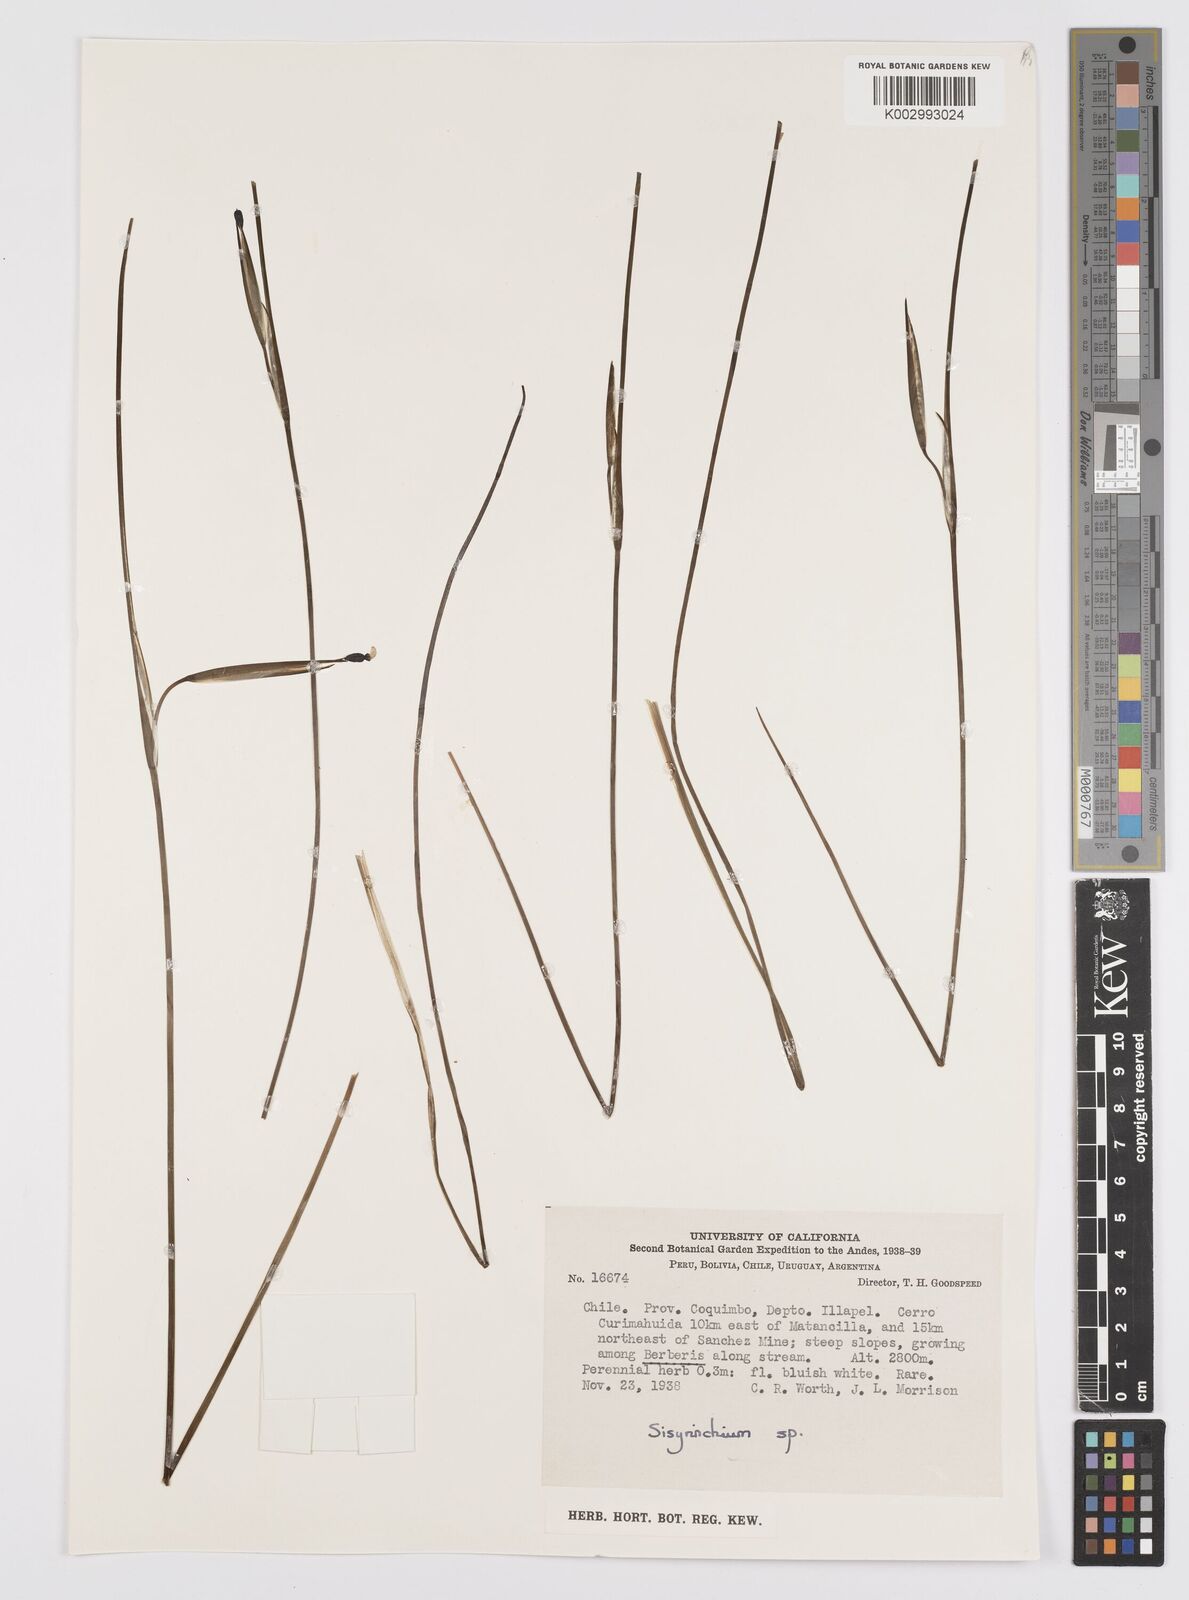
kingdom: Plantae
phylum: Tracheophyta
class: Liliopsida
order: Asparagales
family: Iridaceae
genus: Sisyrinchium
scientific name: Sisyrinchium
